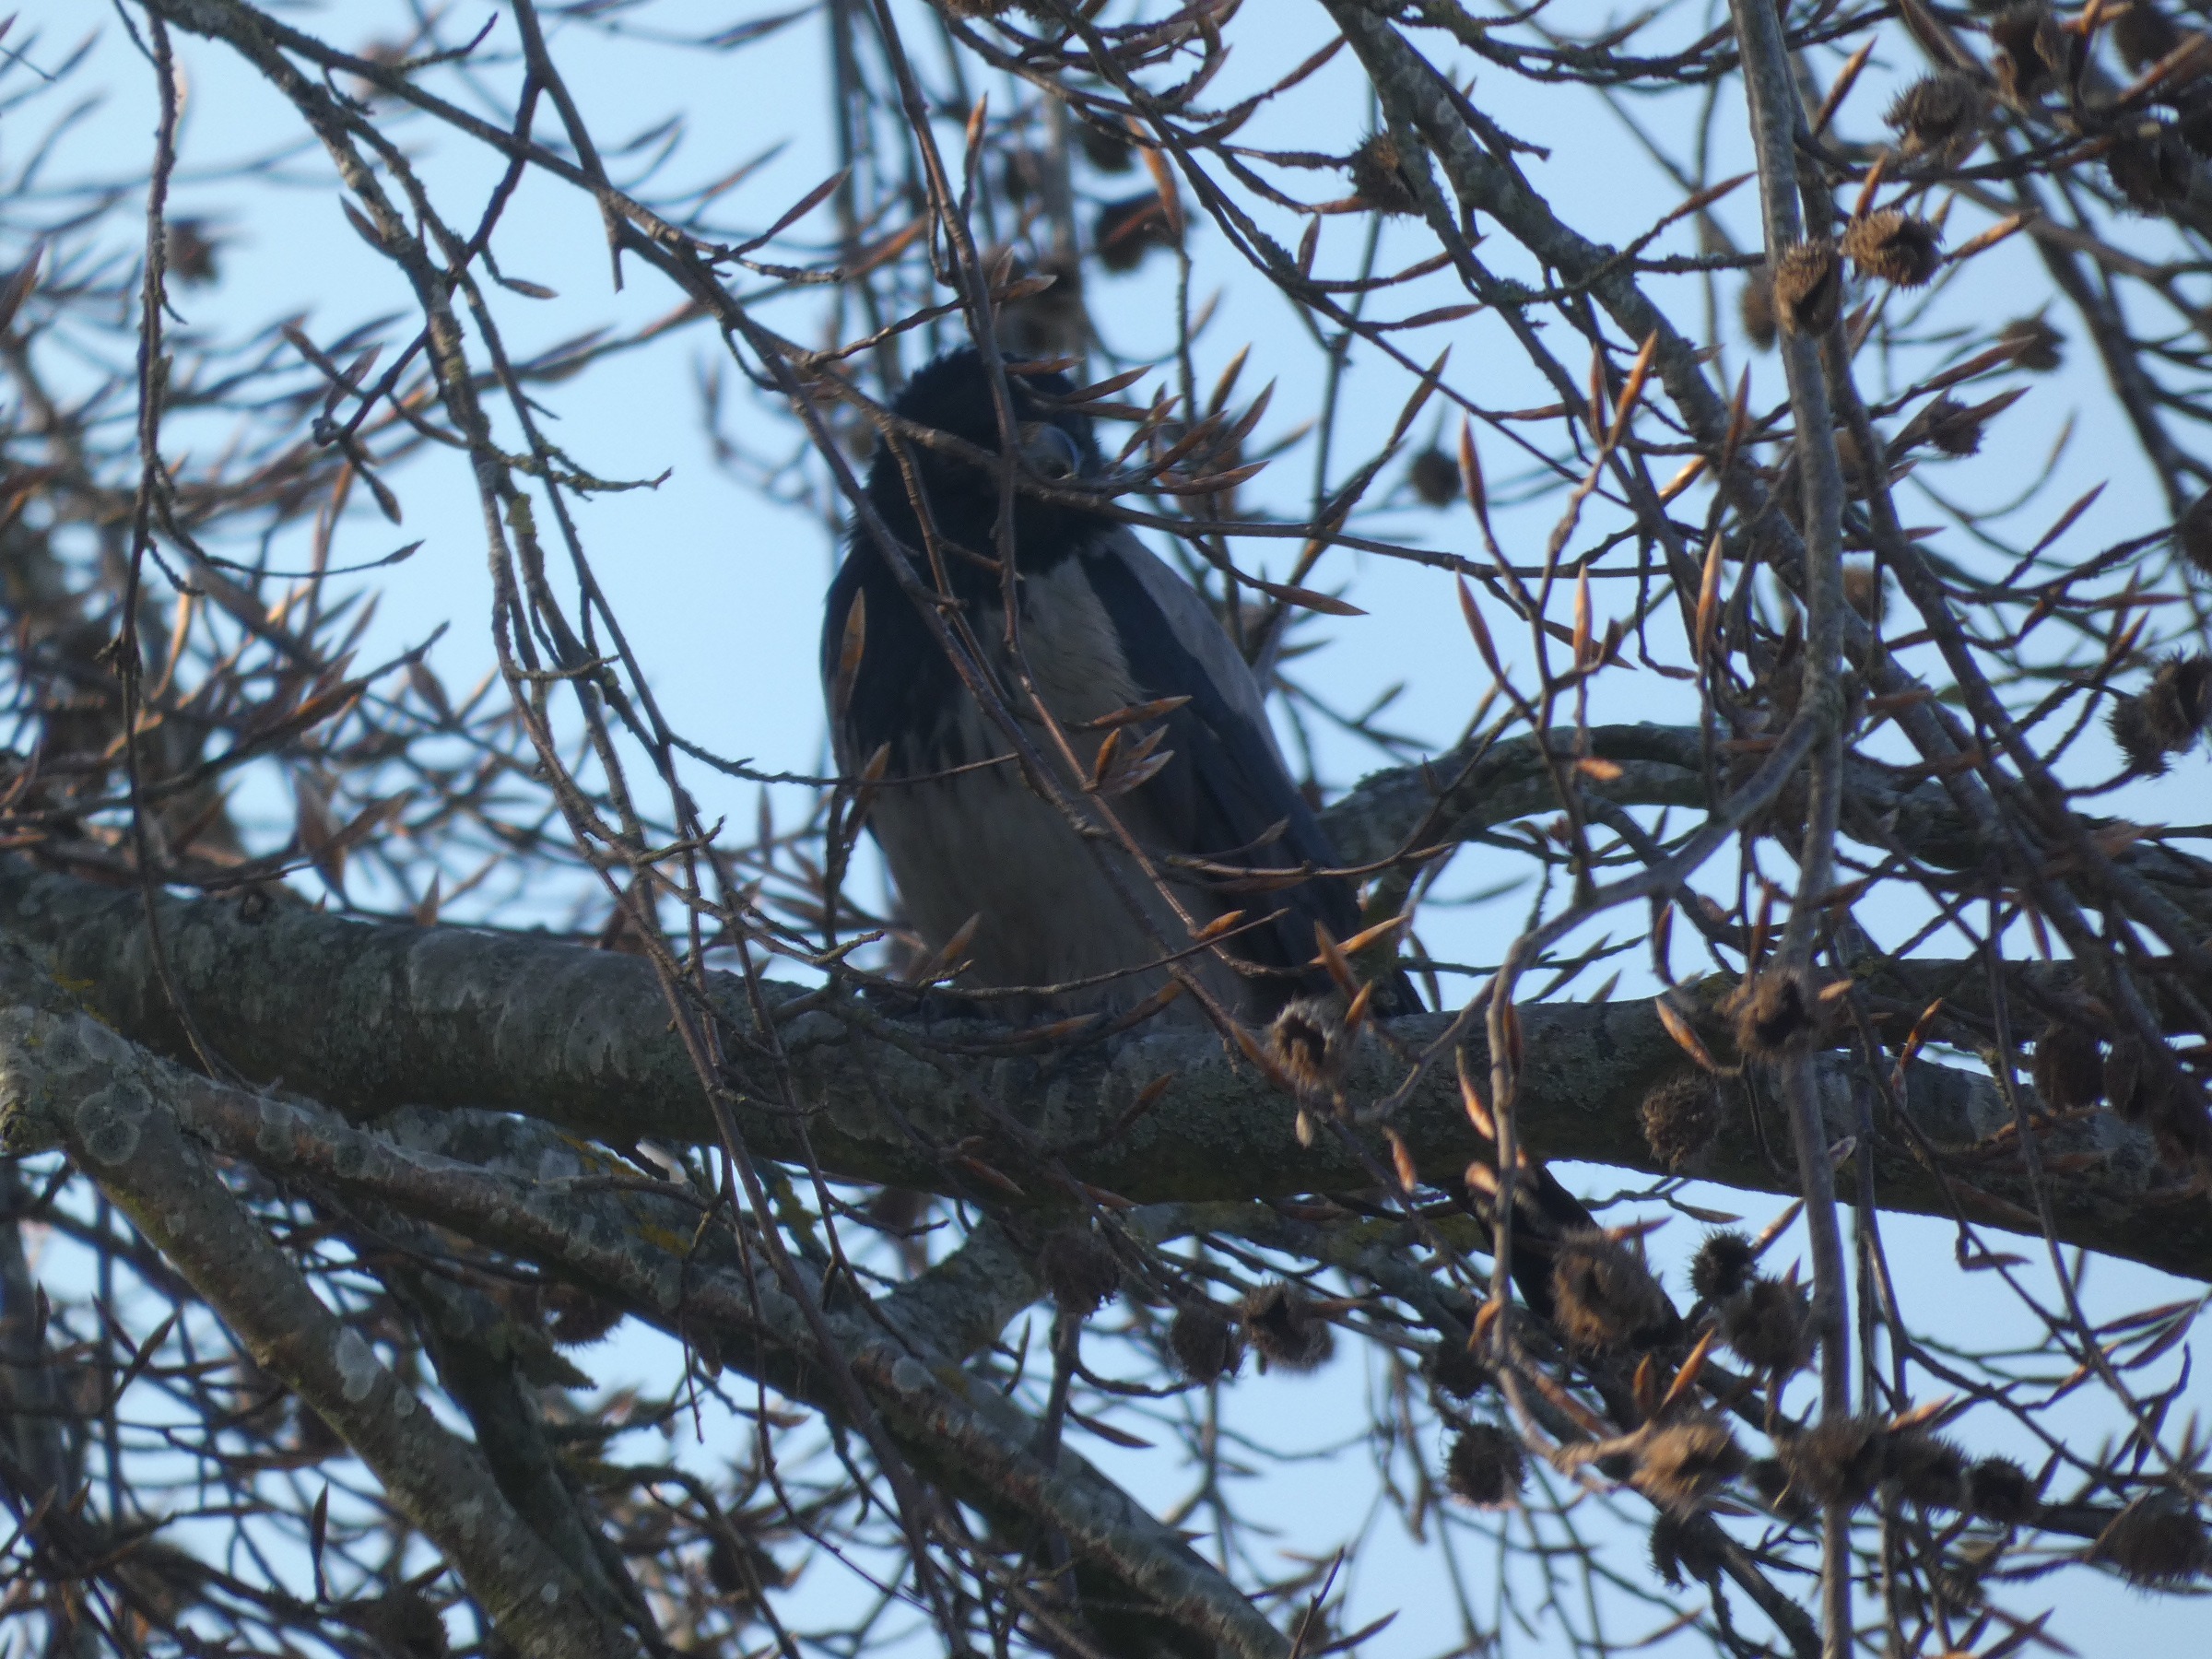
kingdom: Animalia
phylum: Chordata
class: Aves
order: Passeriformes
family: Corvidae
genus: Corvus
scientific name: Corvus cornix
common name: Gråkrage
